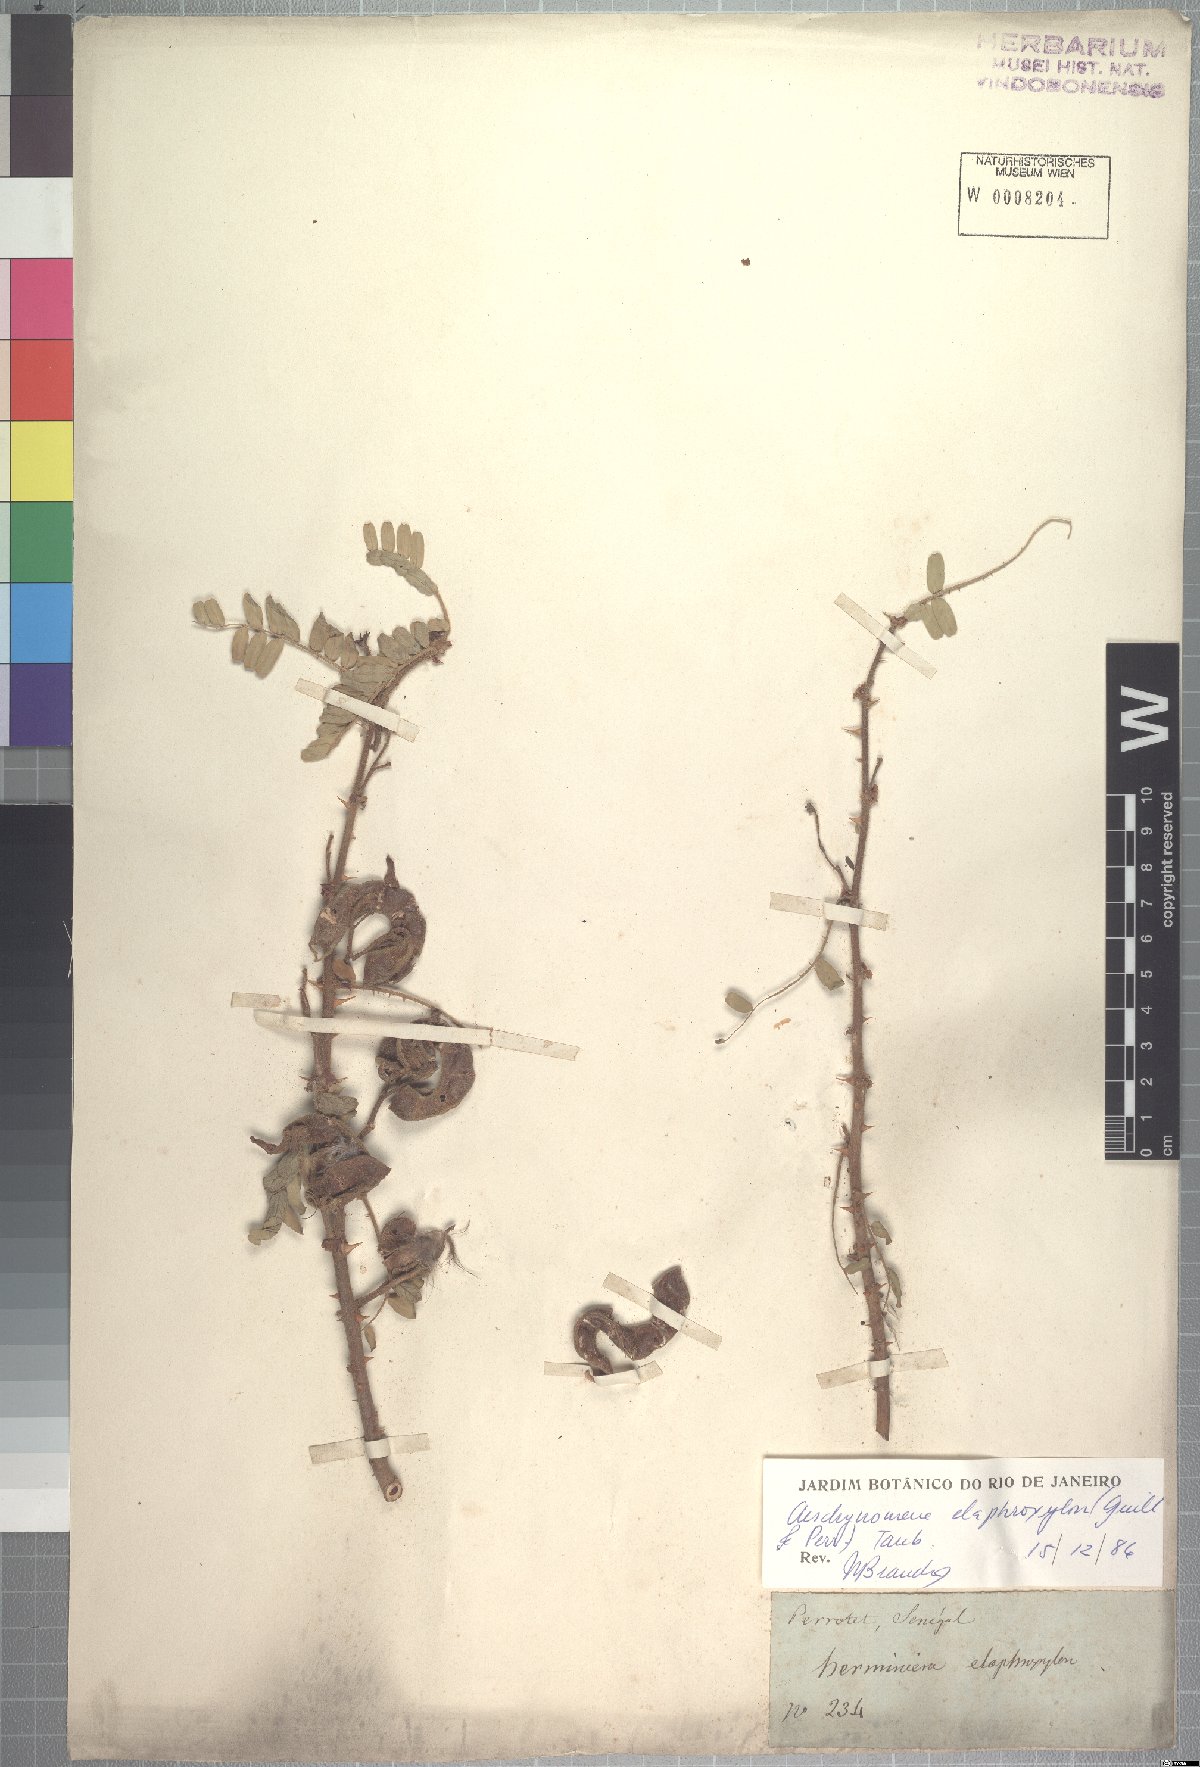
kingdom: Plantae
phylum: Tracheophyta
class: Magnoliopsida
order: Fabales
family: Fabaceae
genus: Aeschynomene
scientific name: Aeschynomene elaphroxylon
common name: Ambatch
